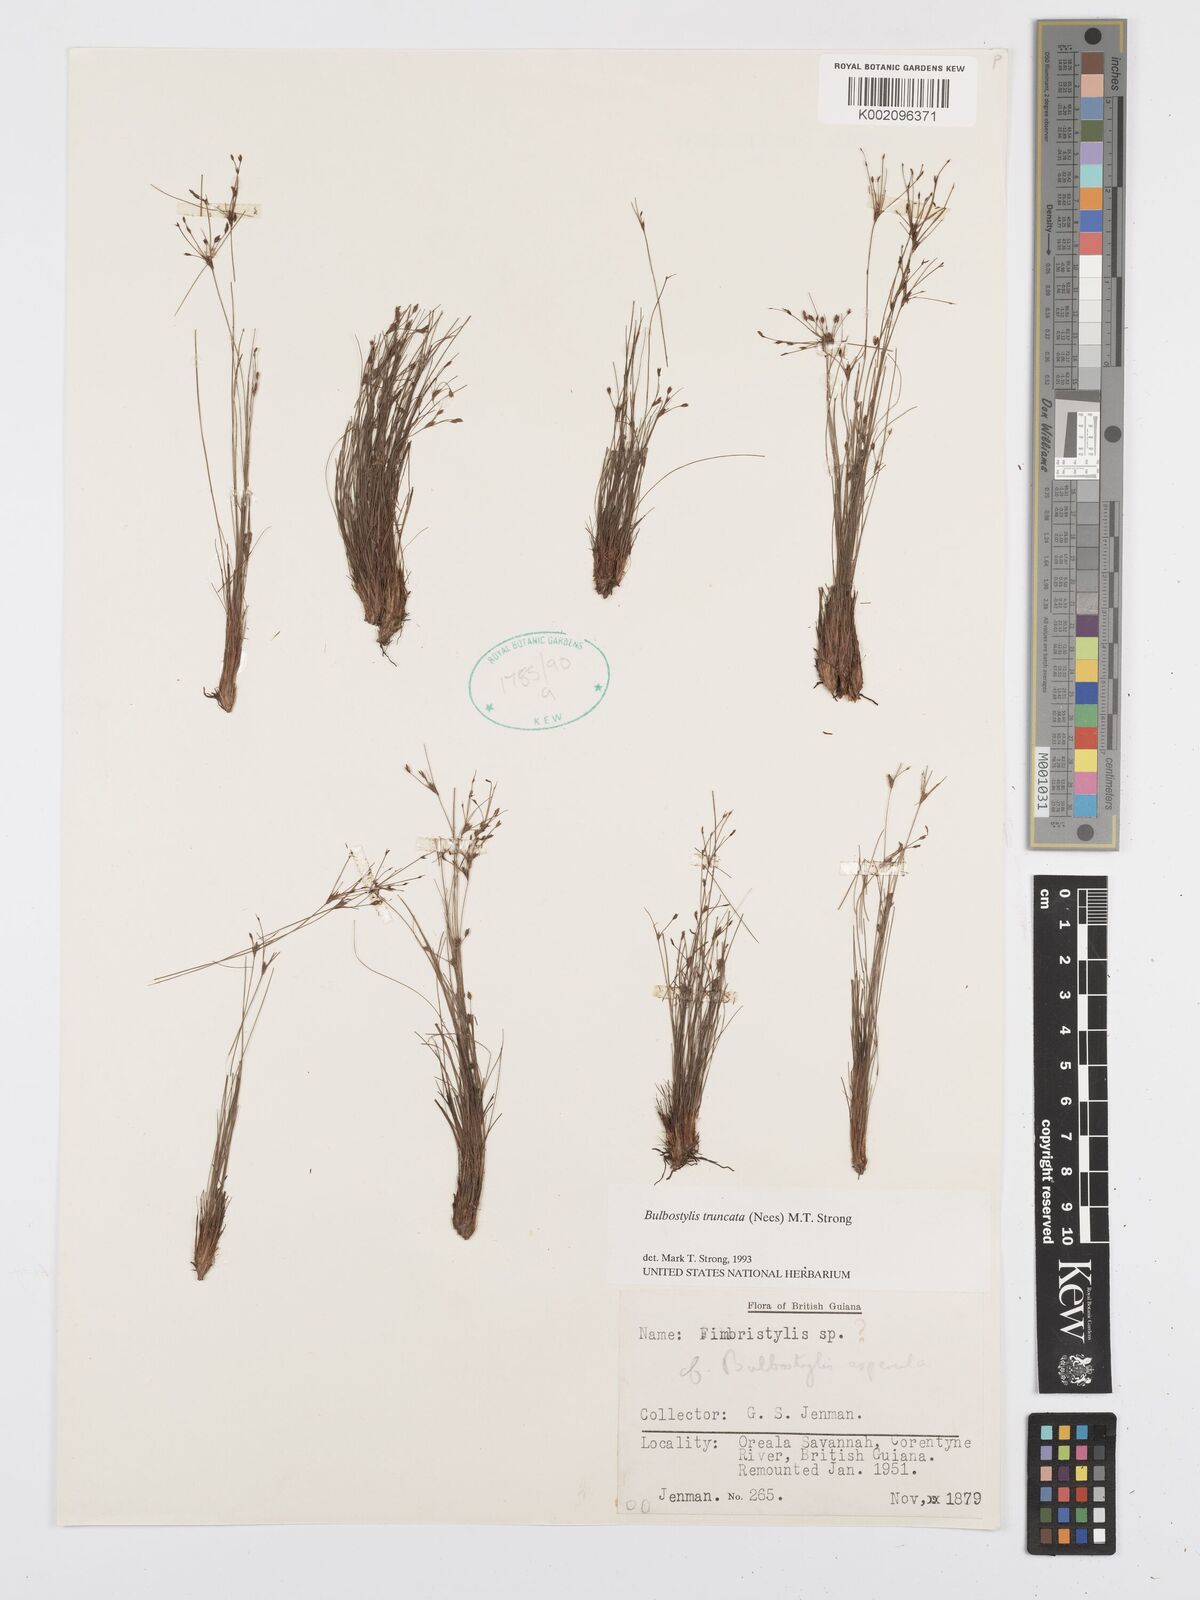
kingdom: Plantae
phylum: Tracheophyta
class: Liliopsida
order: Poales
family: Cyperaceae
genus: Bulbostylis
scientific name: Bulbostylis truncata
